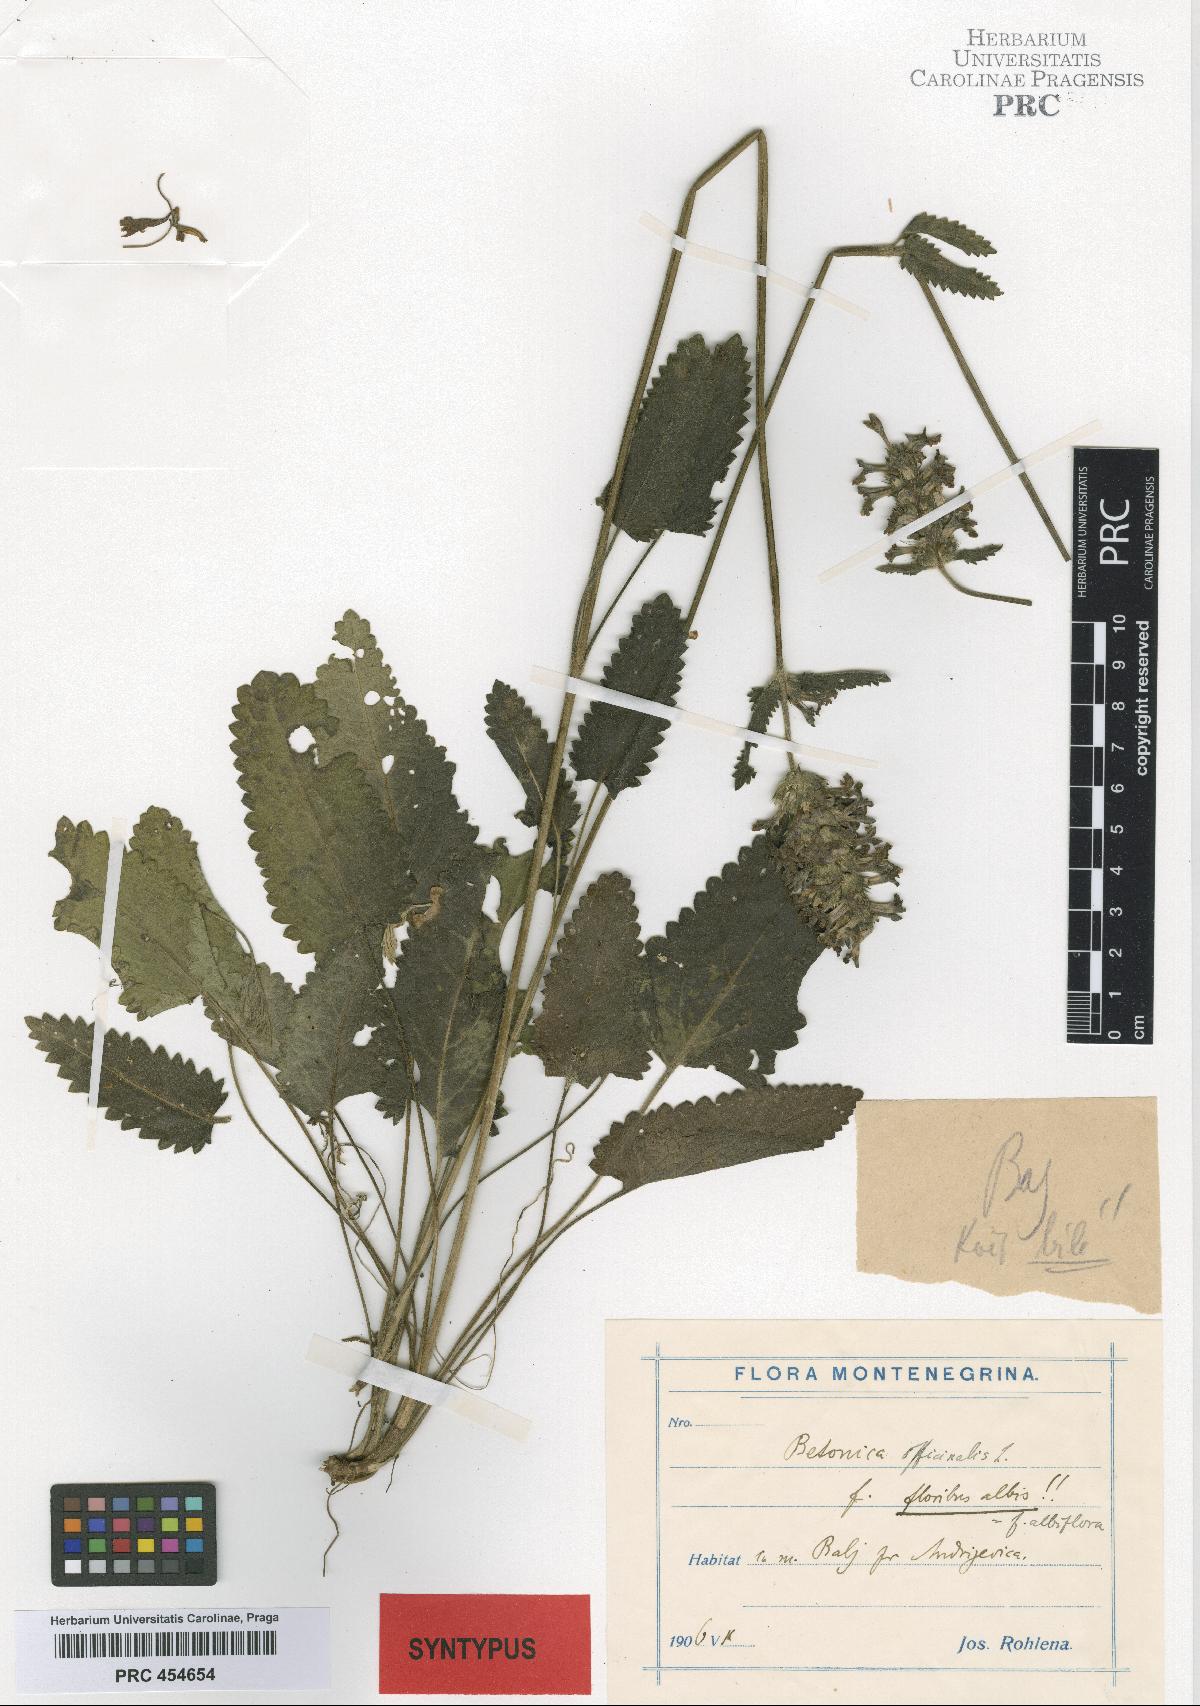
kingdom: Plantae
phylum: Tracheophyta
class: Magnoliopsida
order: Lamiales
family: Lamiaceae
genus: Betonica
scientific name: Betonica officinalis
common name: Bishop's-wort
